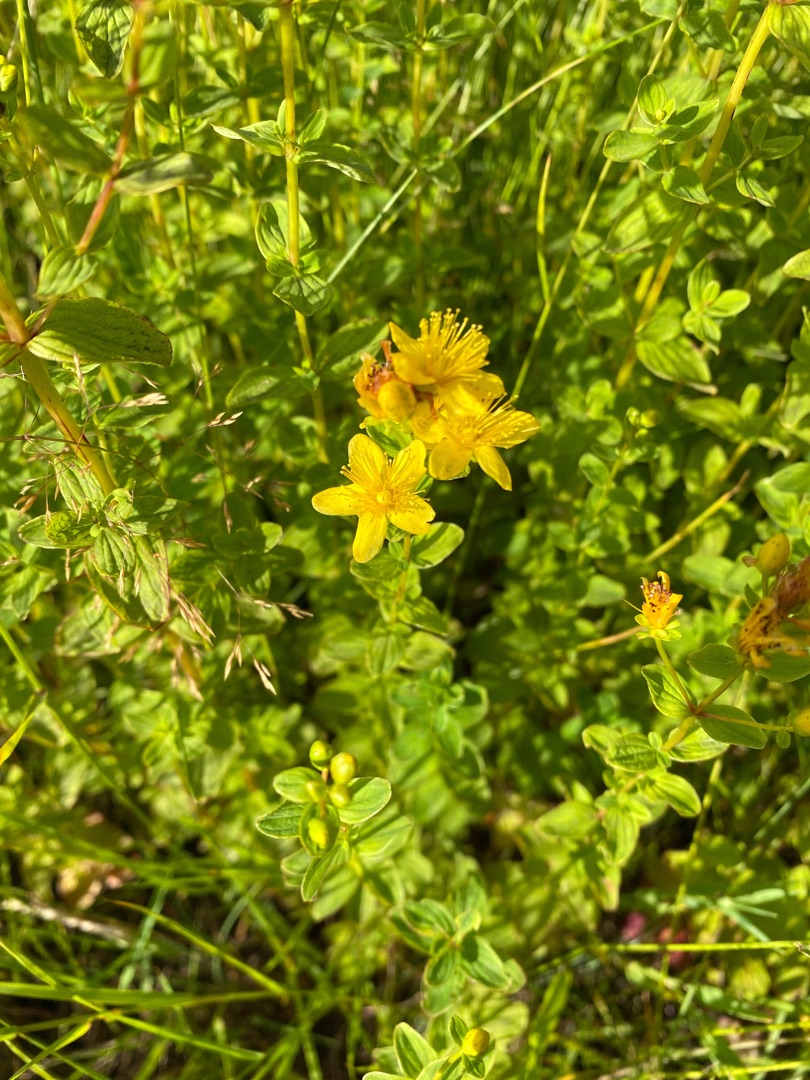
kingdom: Plantae
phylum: Tracheophyta
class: Magnoliopsida
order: Malpighiales
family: Hypericaceae
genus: Hypericum
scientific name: Hypericum maculatum
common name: Kantet perikon
